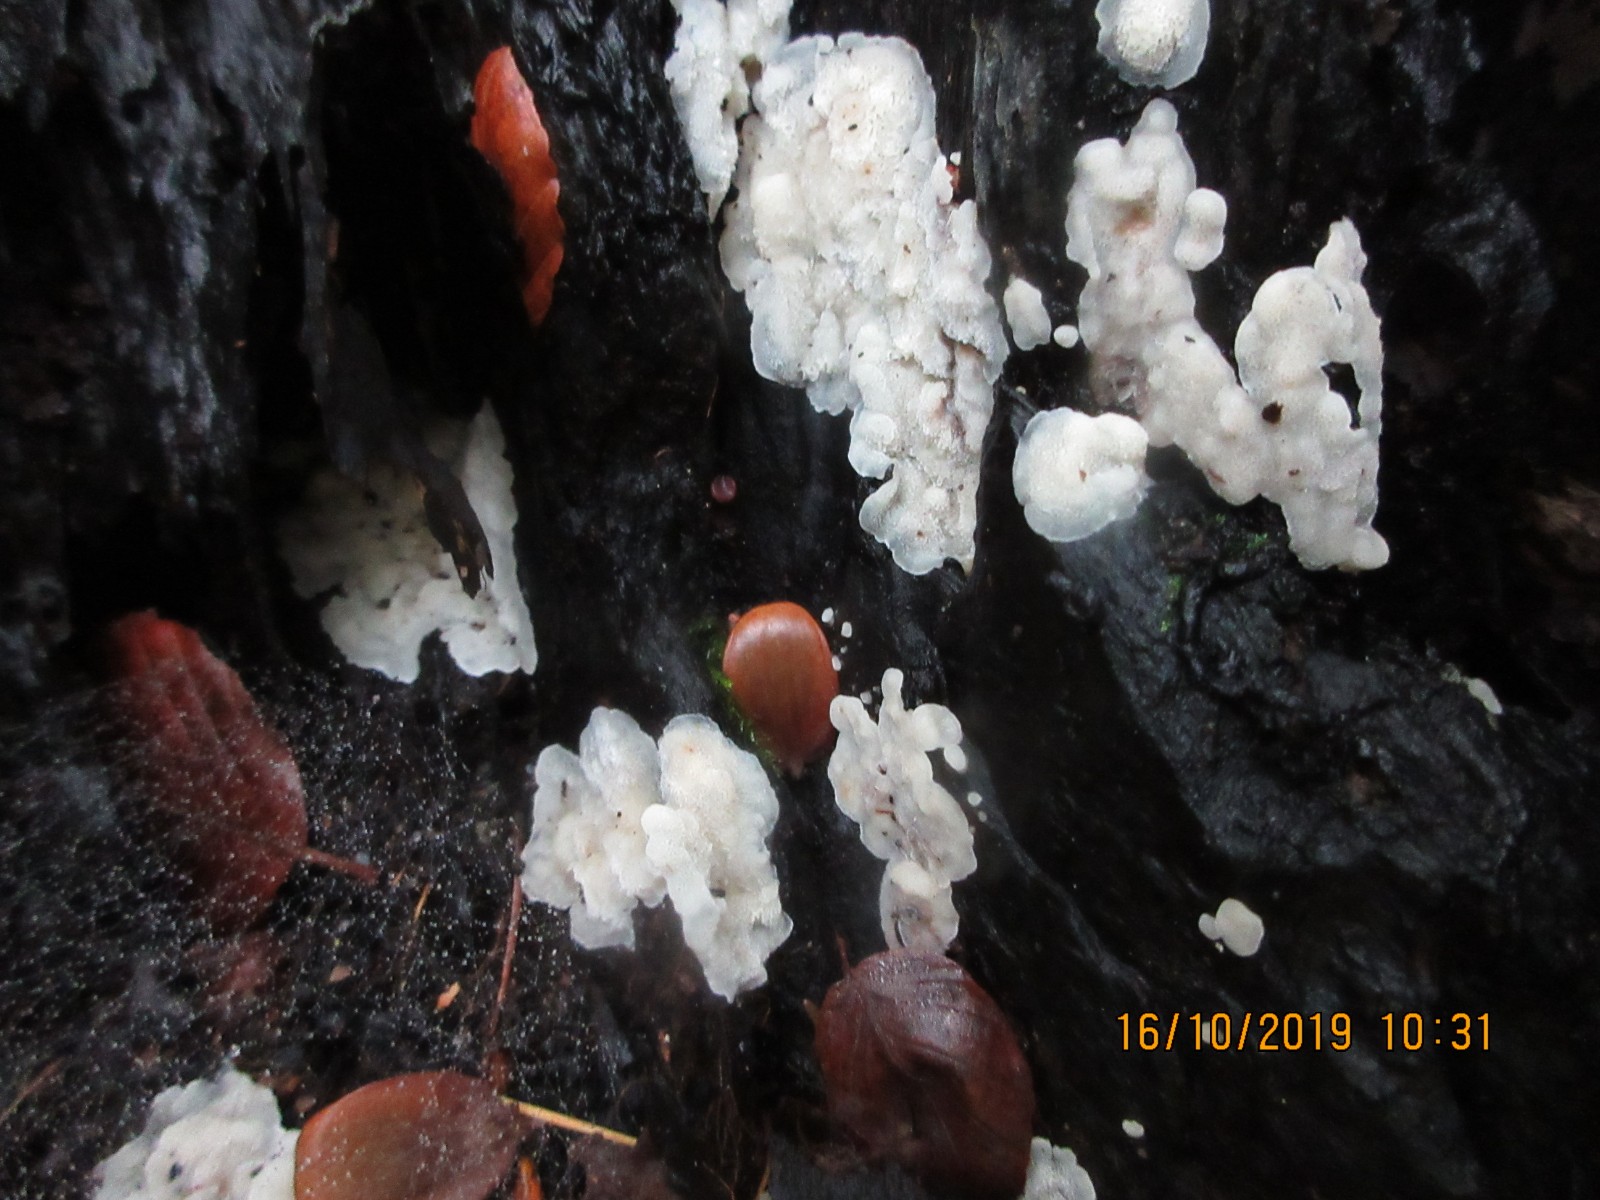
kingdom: Fungi
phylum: Basidiomycota
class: Agaricomycetes
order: Polyporales
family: Meruliaceae
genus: Physisporinus
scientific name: Physisporinus
